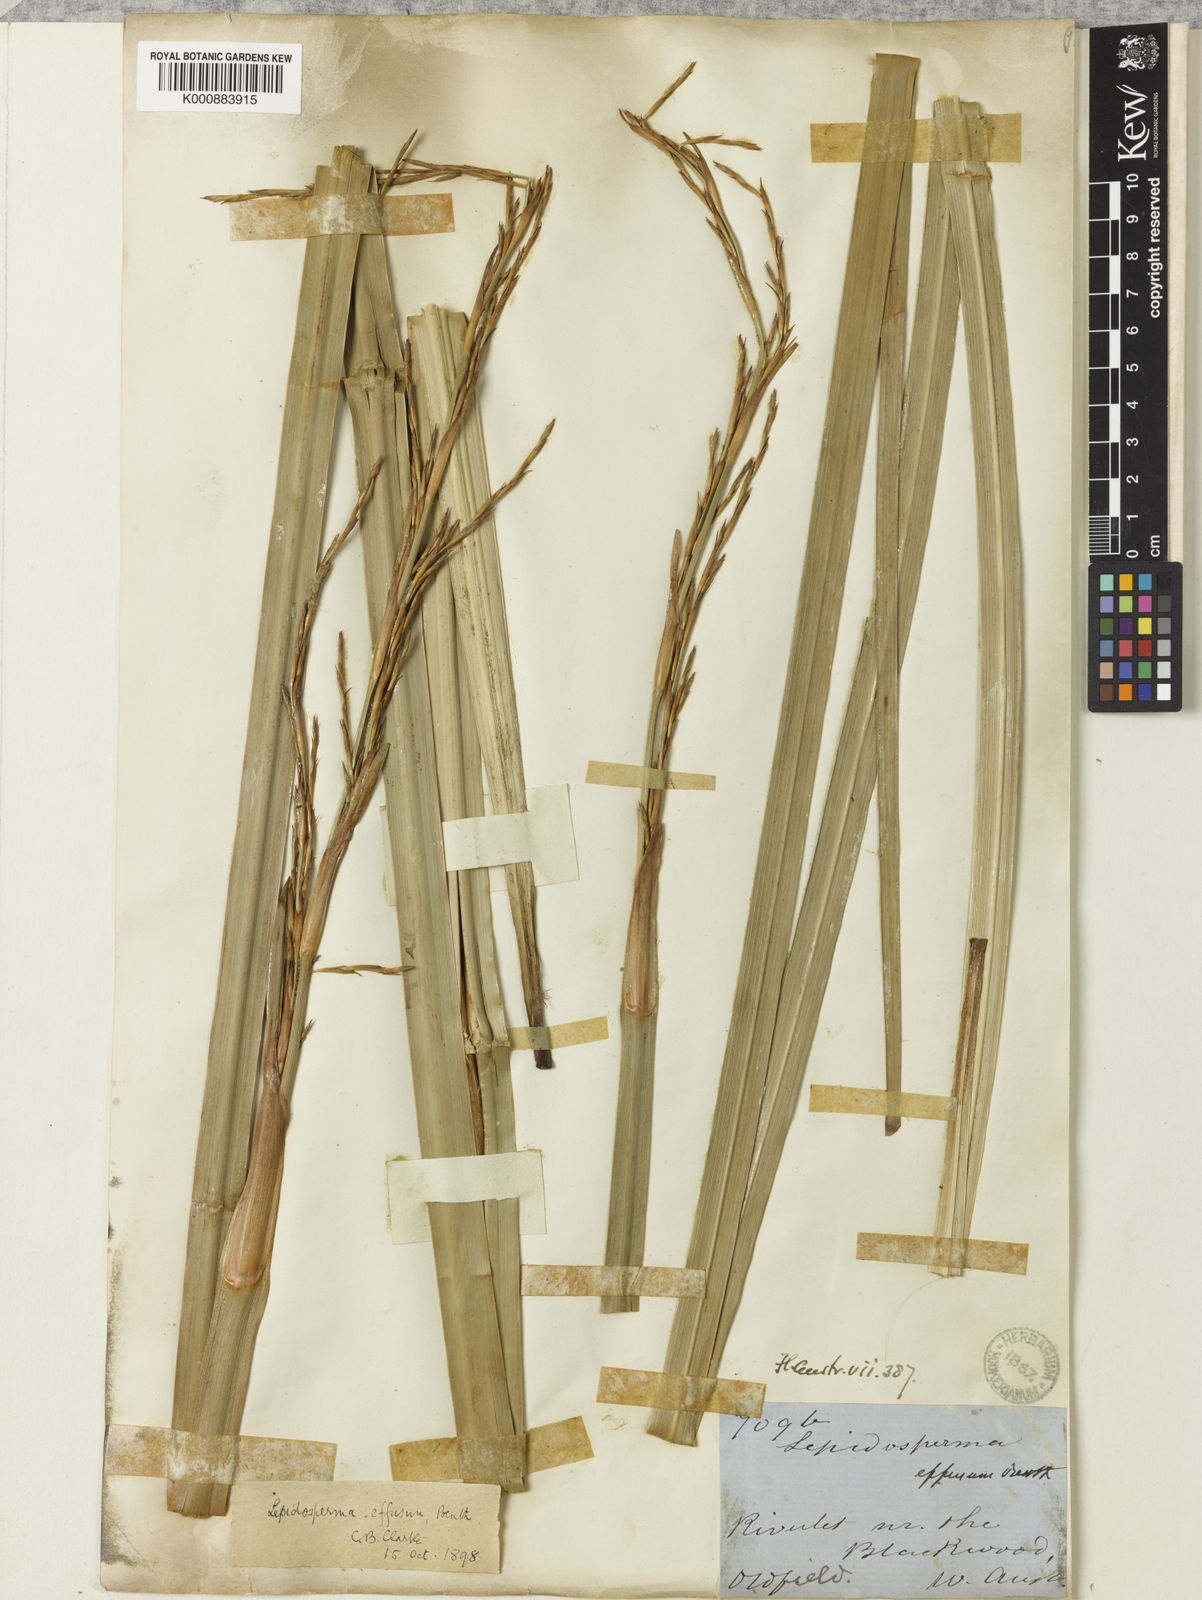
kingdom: Plantae
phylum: Tracheophyta
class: Liliopsida
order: Poales
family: Cyperaceae
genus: Lepidosperma
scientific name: Lepidosperma effusum
